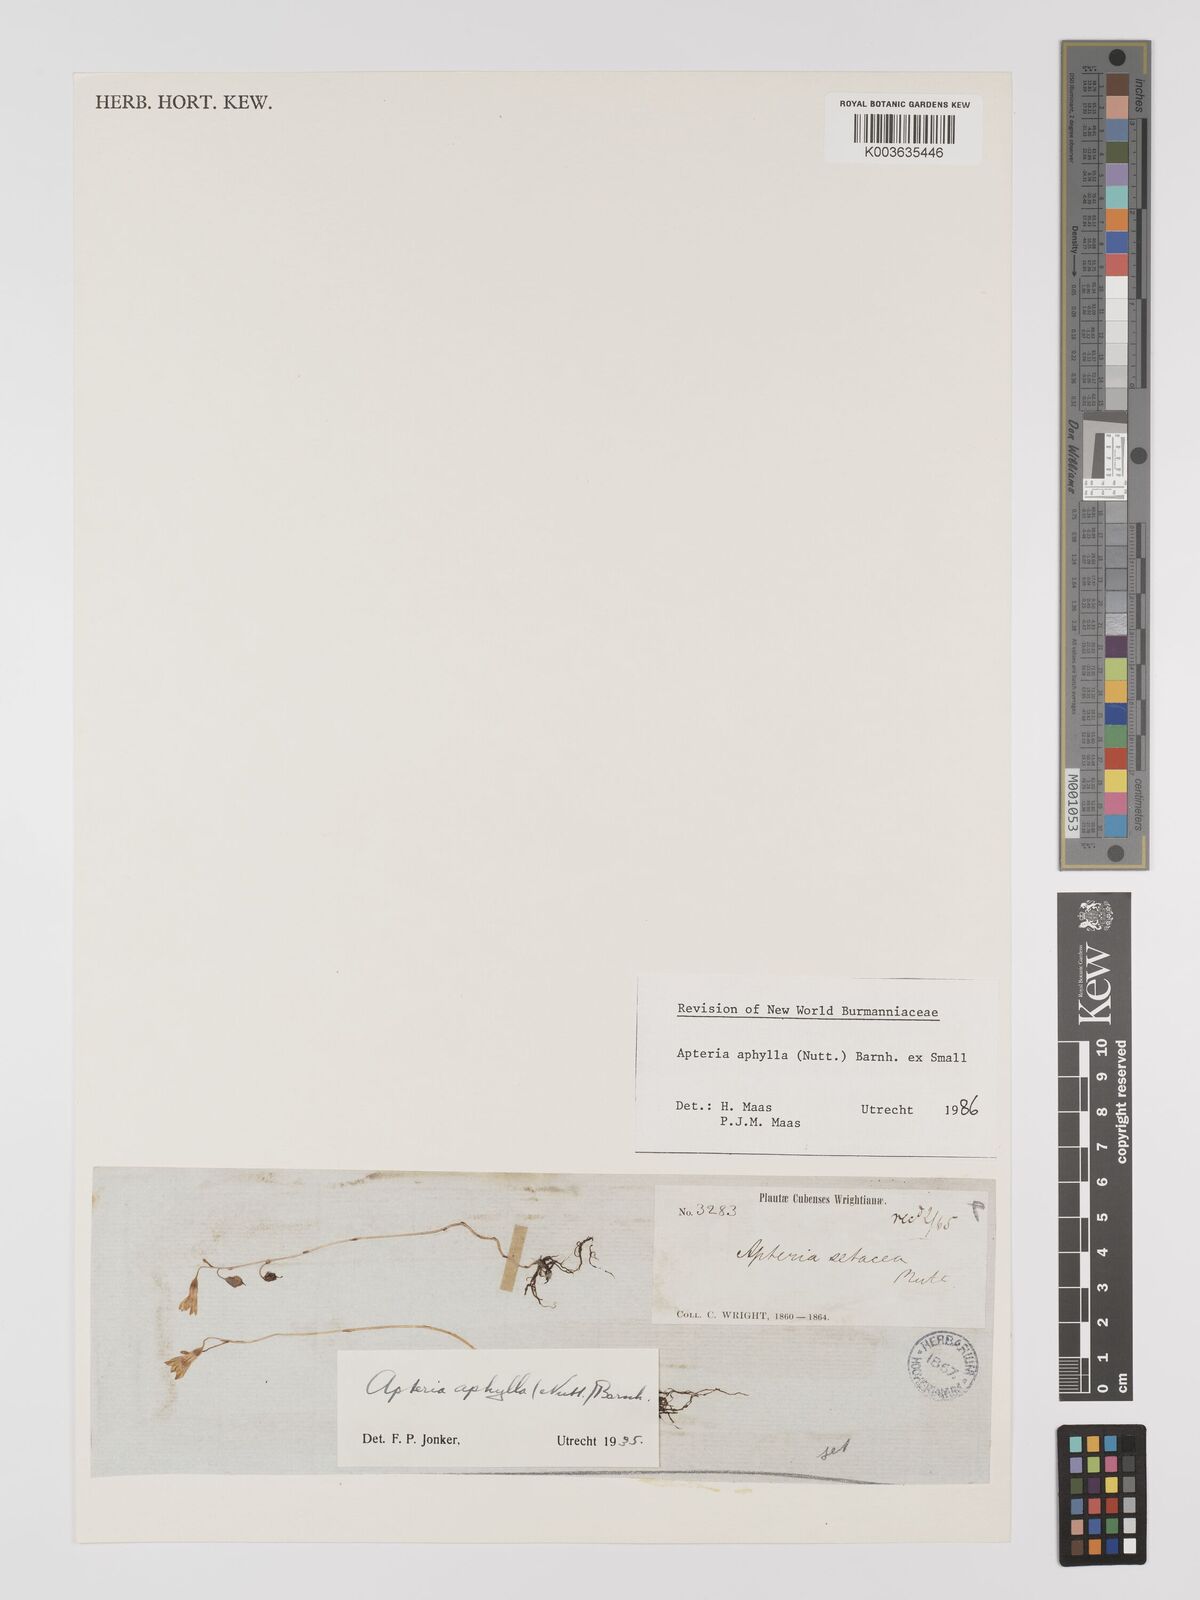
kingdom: Plantae
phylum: Tracheophyta
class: Liliopsida
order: Dioscoreales
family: Burmanniaceae
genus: Apteria
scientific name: Apteria aphylla
